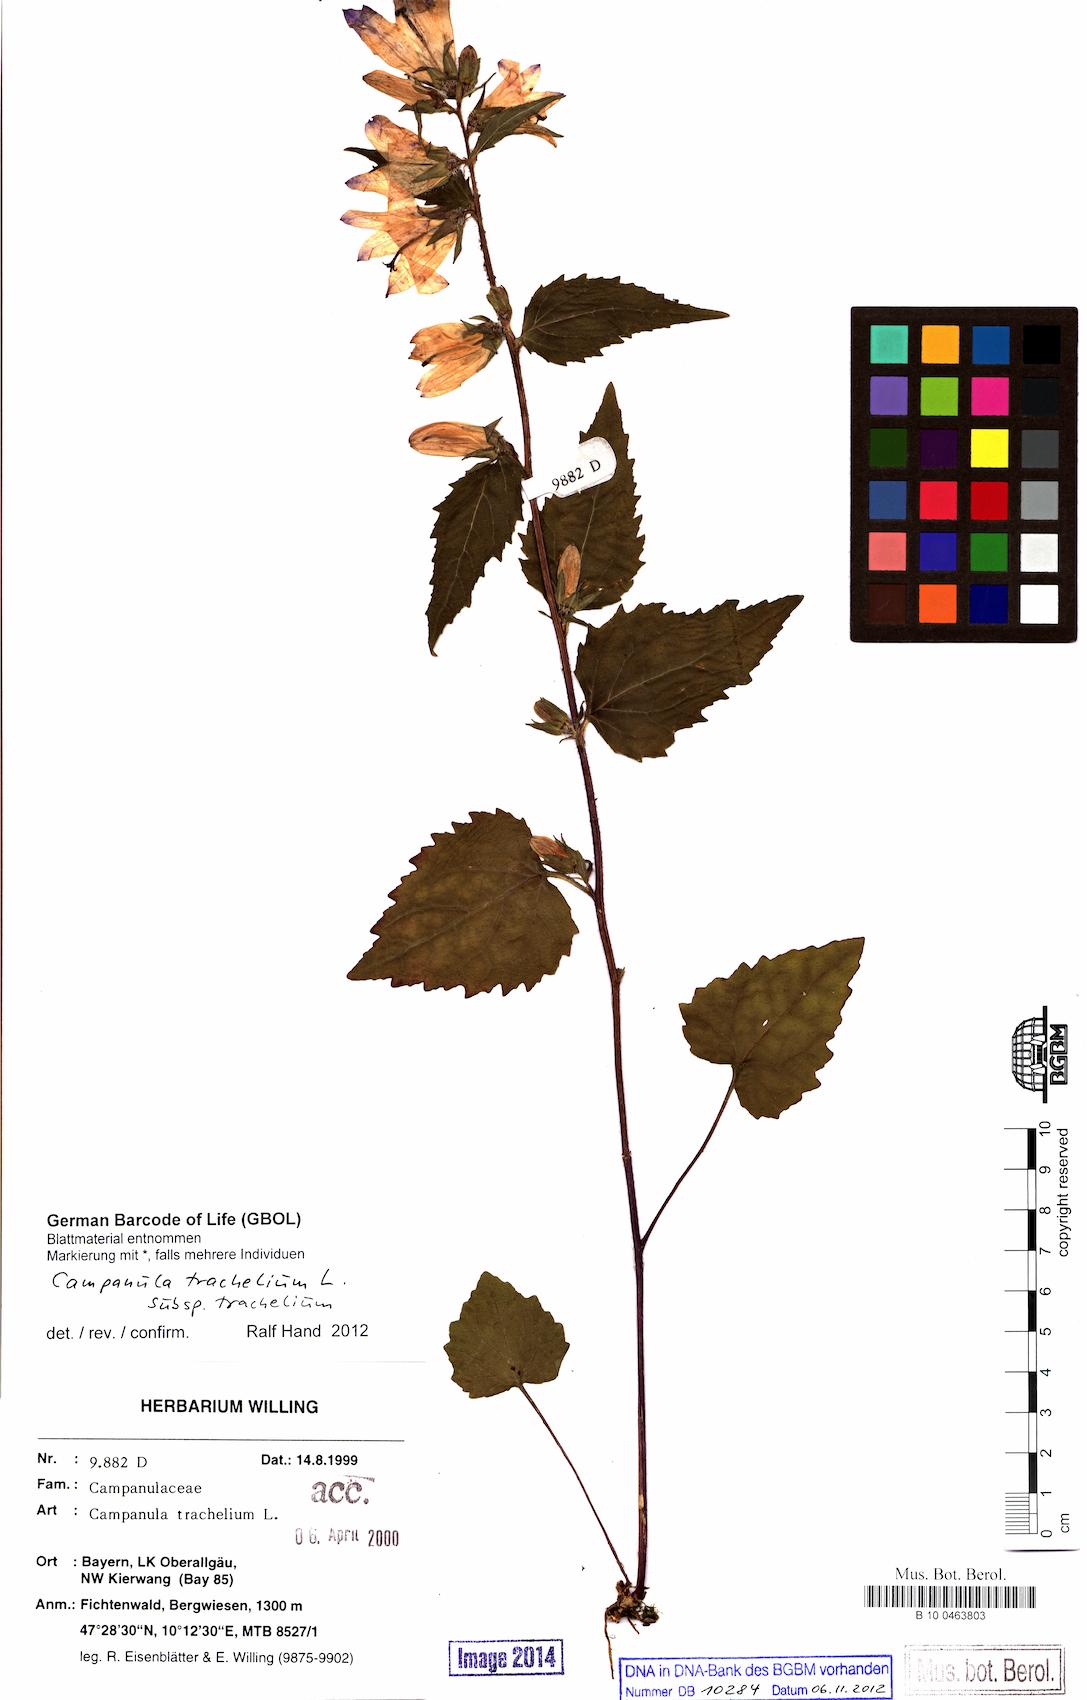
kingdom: Plantae
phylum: Tracheophyta
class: Magnoliopsida
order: Asterales
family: Campanulaceae
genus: Campanula
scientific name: Campanula trachelium
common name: Nettle-leaved bellflower
